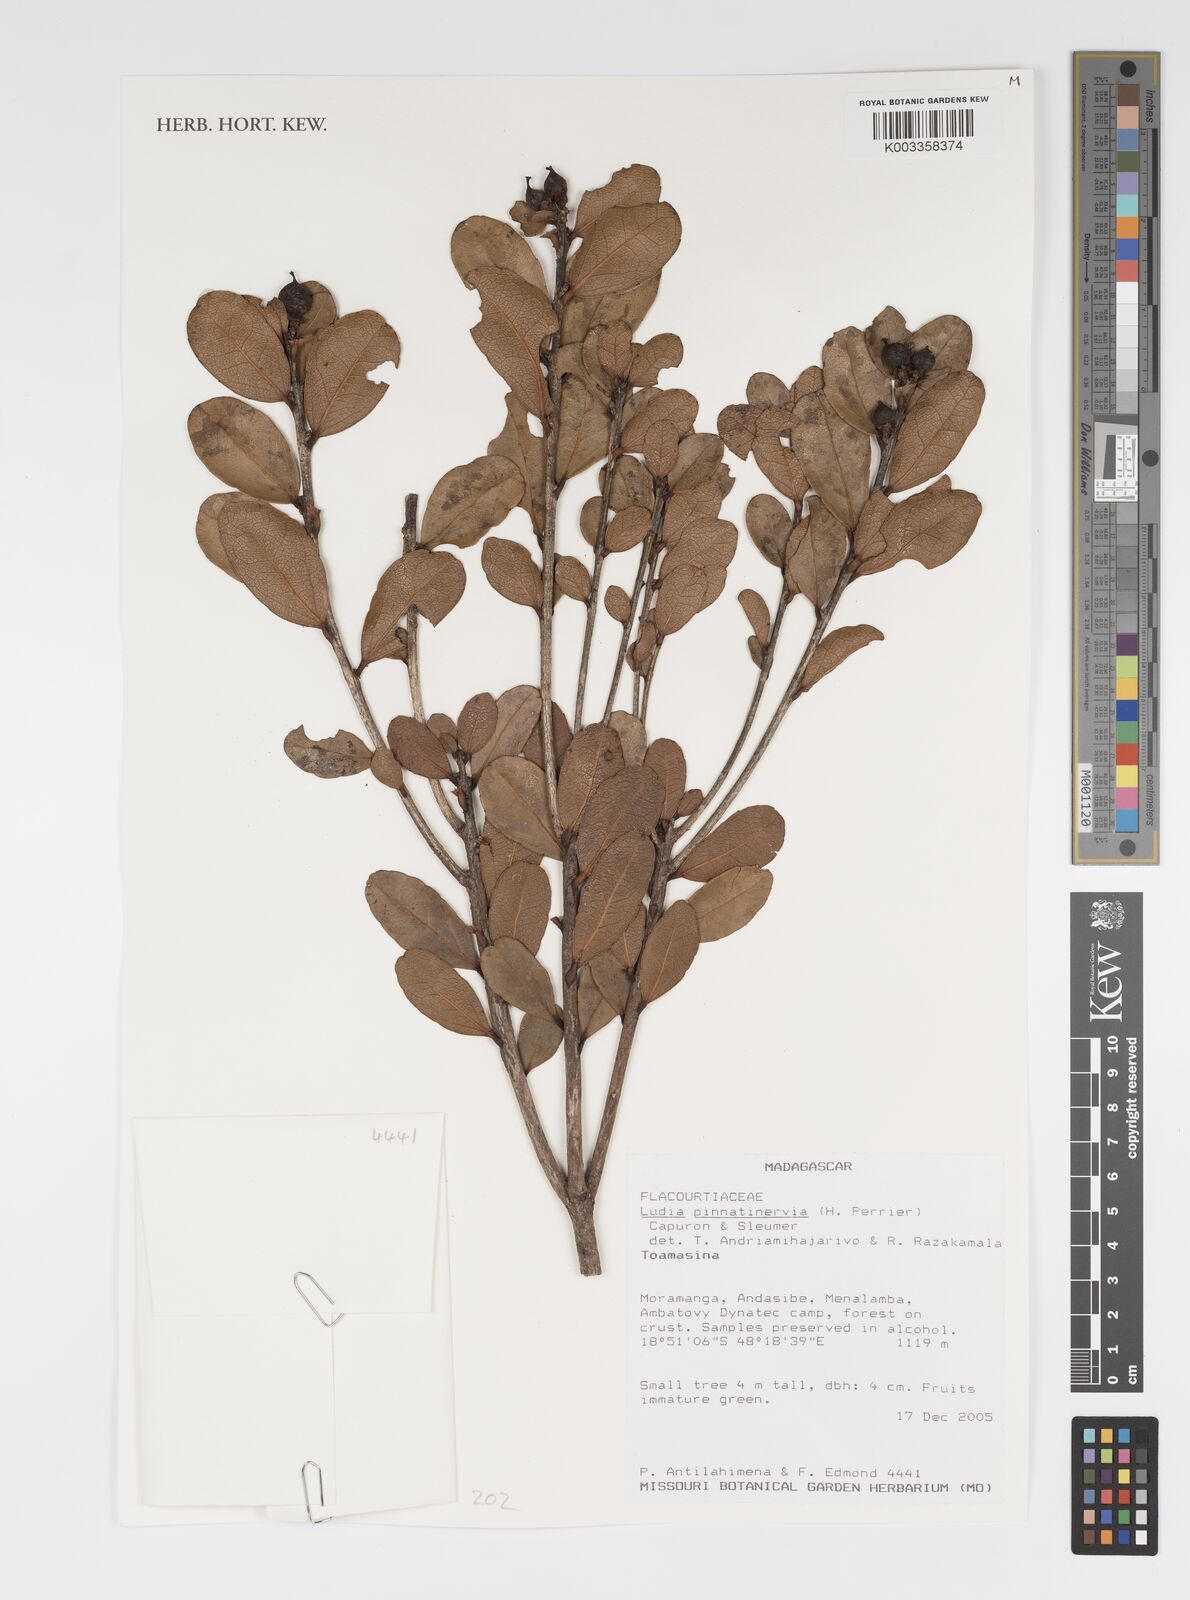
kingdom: Plantae
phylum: Tracheophyta
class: Magnoliopsida
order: Malpighiales
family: Salicaceae
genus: Ludia
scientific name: Ludia pinnatinervia
